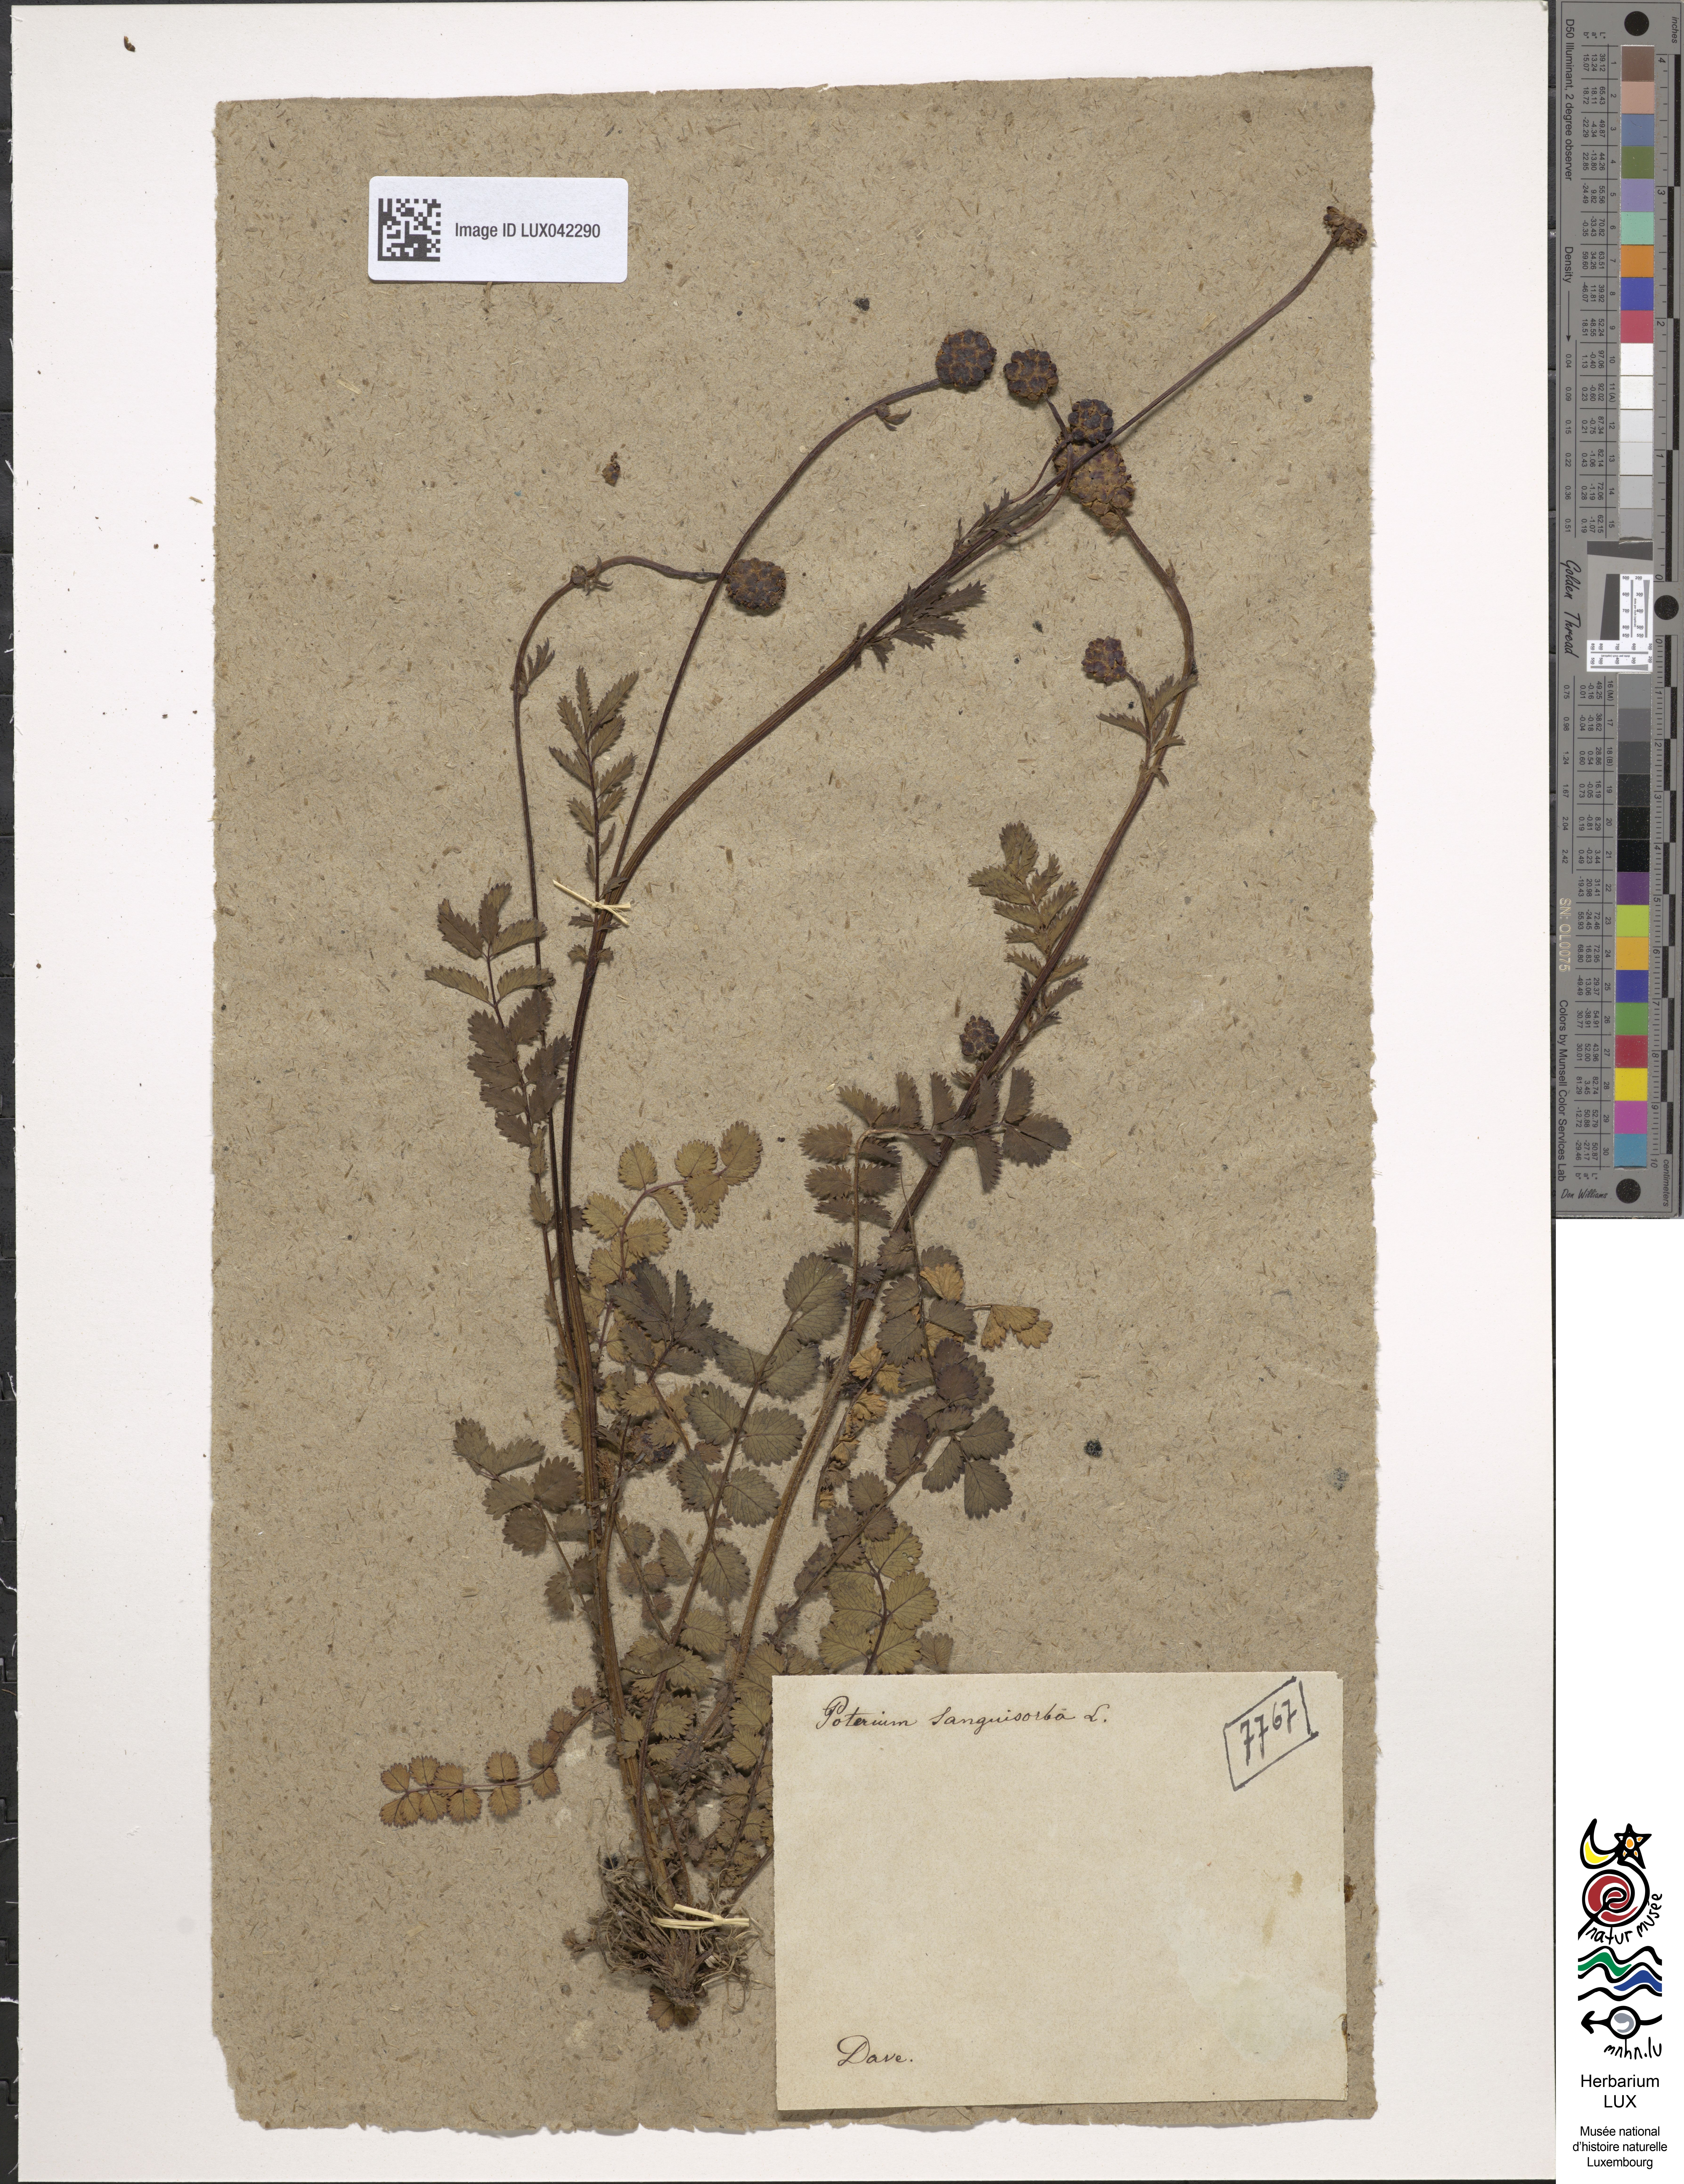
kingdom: Plantae
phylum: Tracheophyta
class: Magnoliopsida
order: Rosales
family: Rosaceae
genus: Poterium
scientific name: Poterium sanguisorba
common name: Salad burnet
